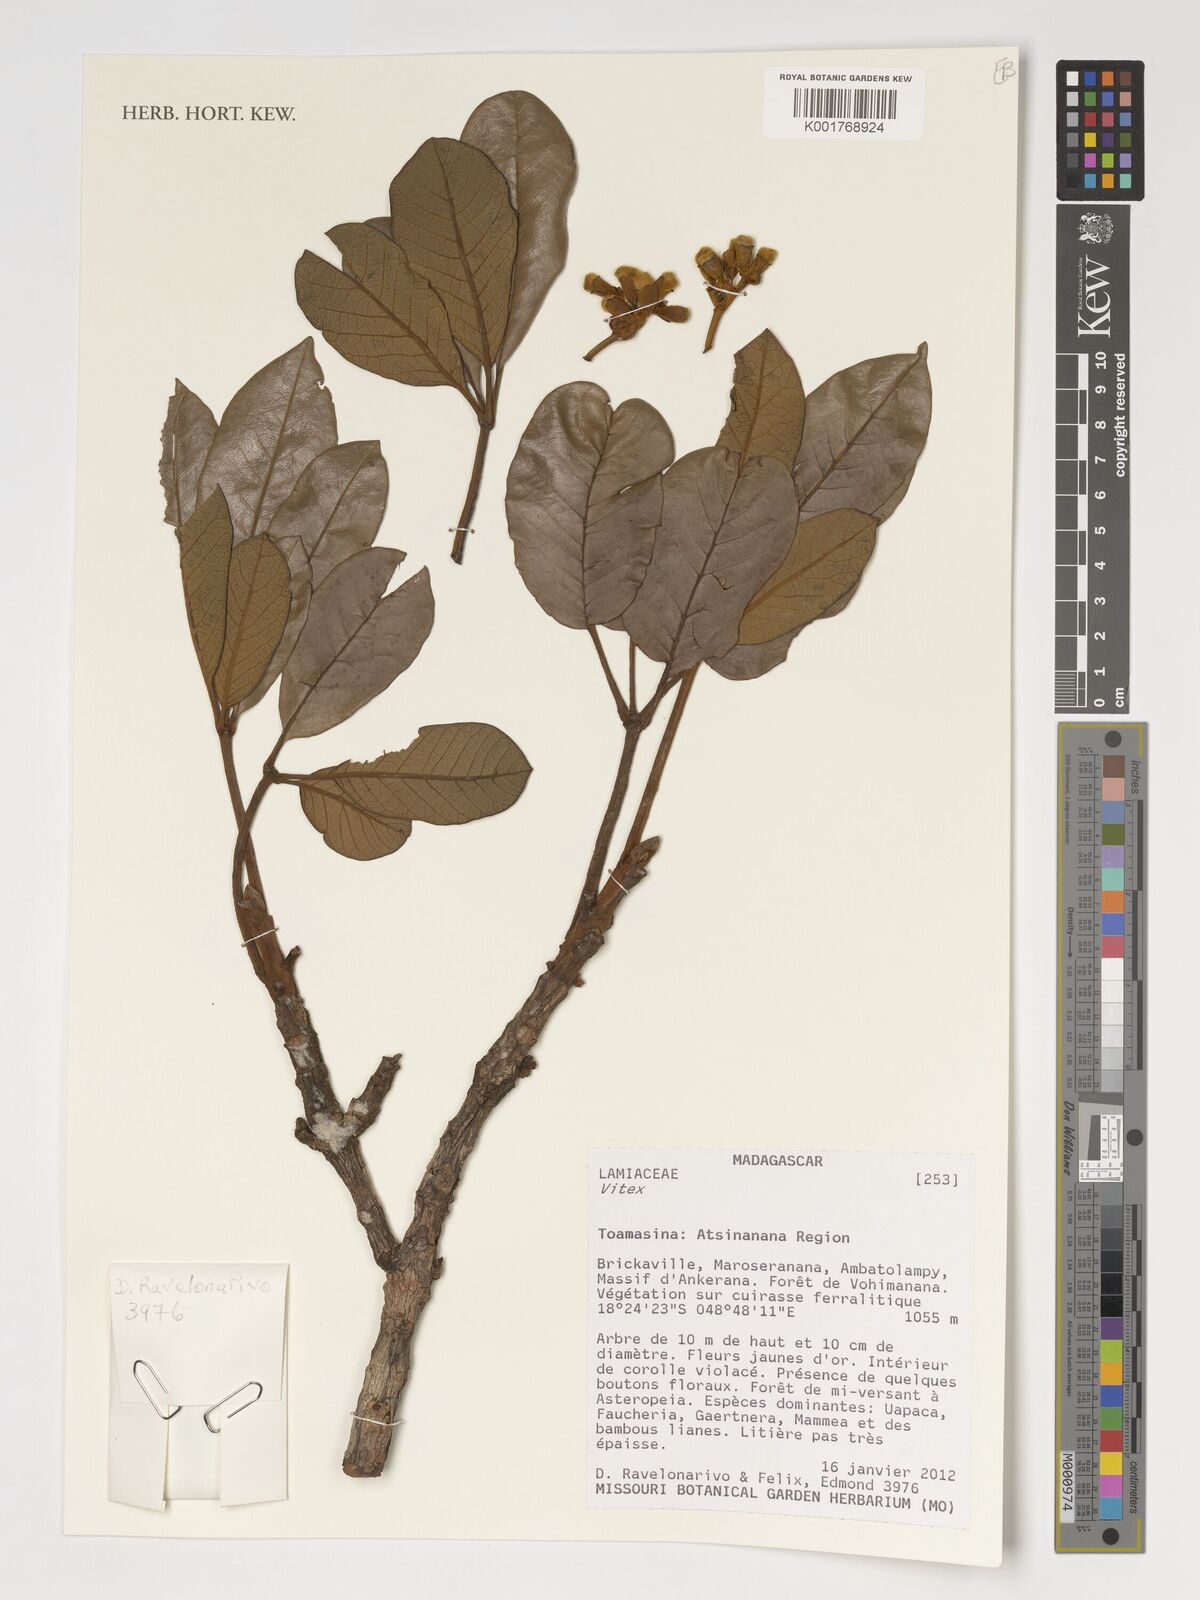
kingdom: Plantae
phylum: Tracheophyta
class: Magnoliopsida
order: Lamiales
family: Lamiaceae
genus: Vitex
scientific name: Vitex
